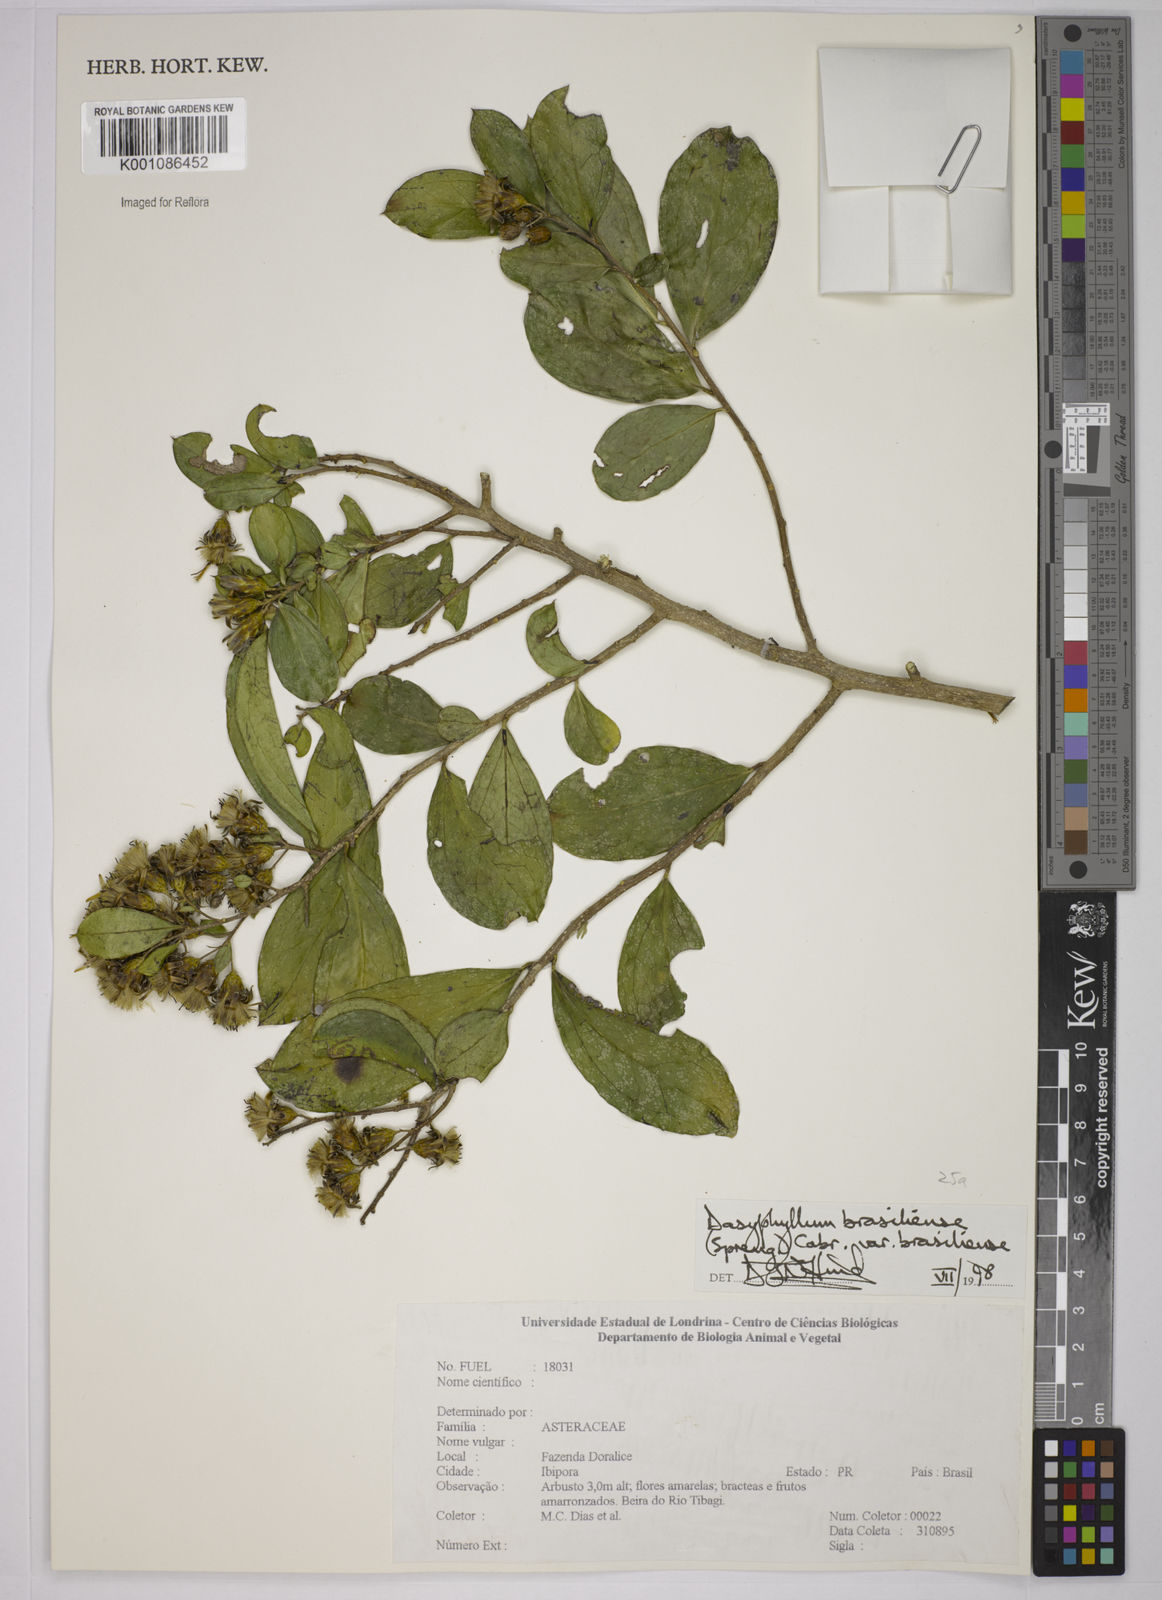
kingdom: Plantae
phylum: Tracheophyta
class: Magnoliopsida
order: Asterales
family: Asteraceae
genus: Dasyphyllum
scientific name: Dasyphyllum brasiliense
